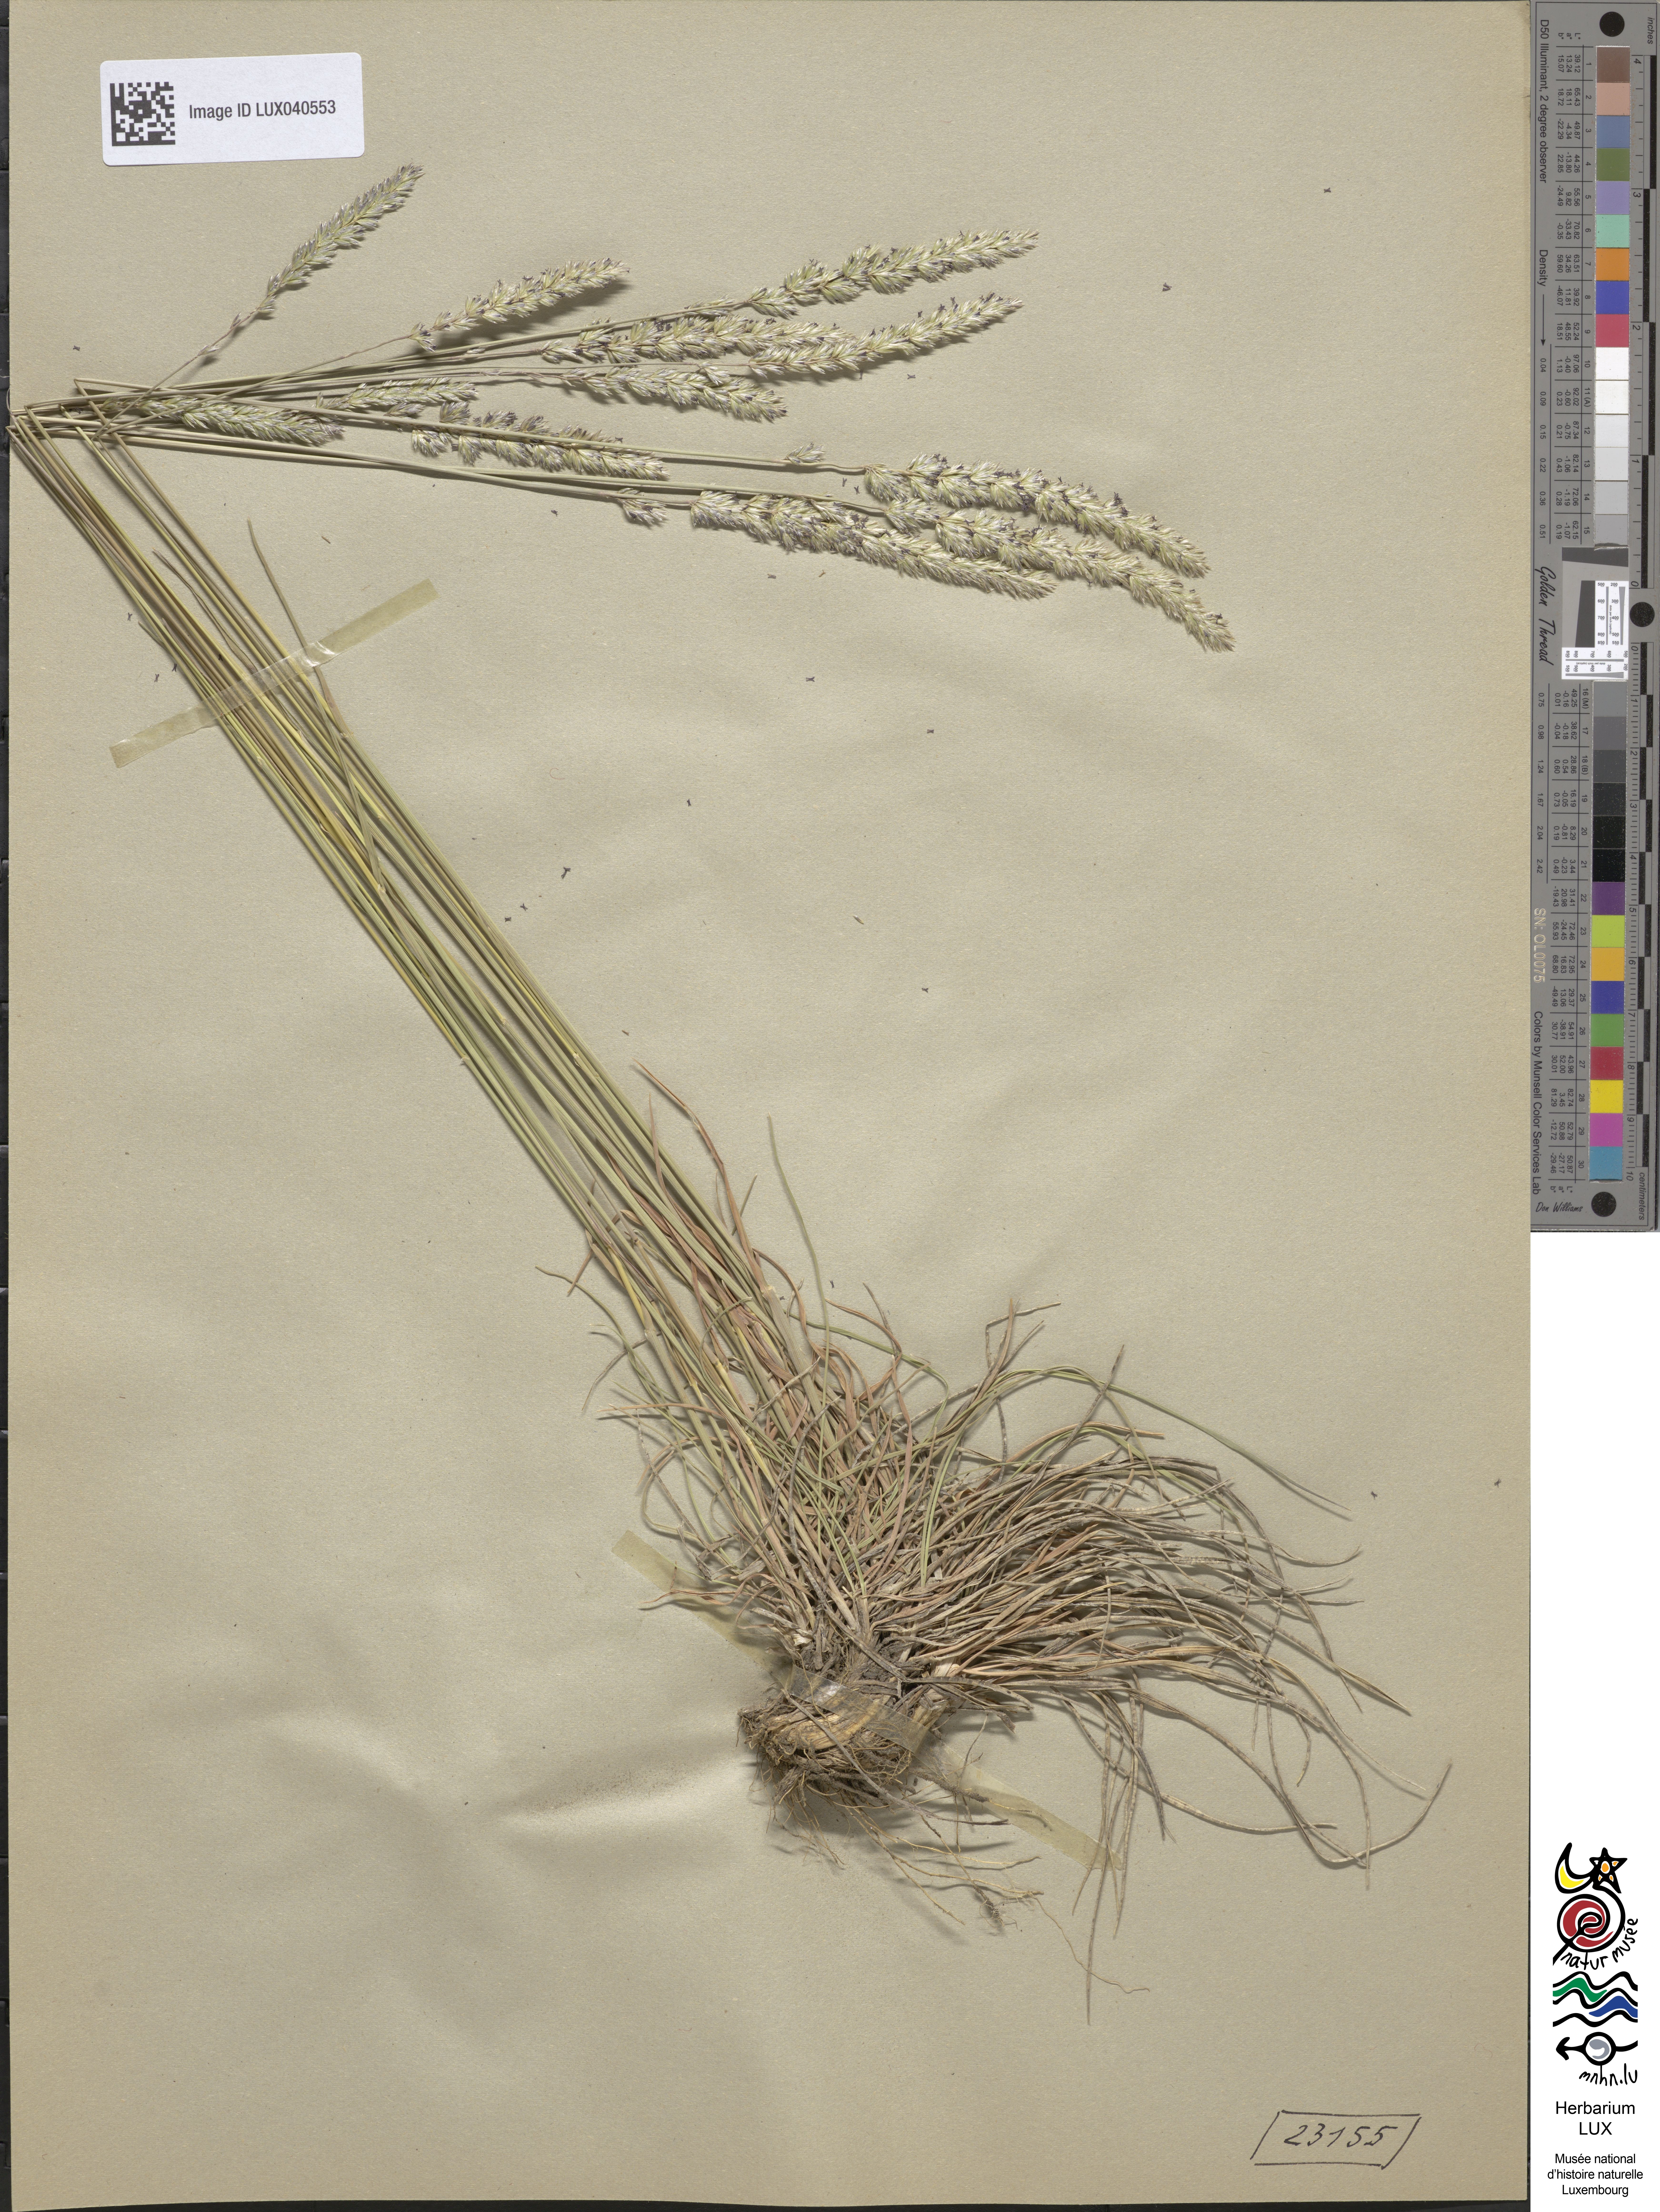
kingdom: Plantae
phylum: Tracheophyta
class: Liliopsida
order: Poales
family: Poaceae
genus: Koeleria
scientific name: Koeleria macrantha
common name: Crested hair-grass
